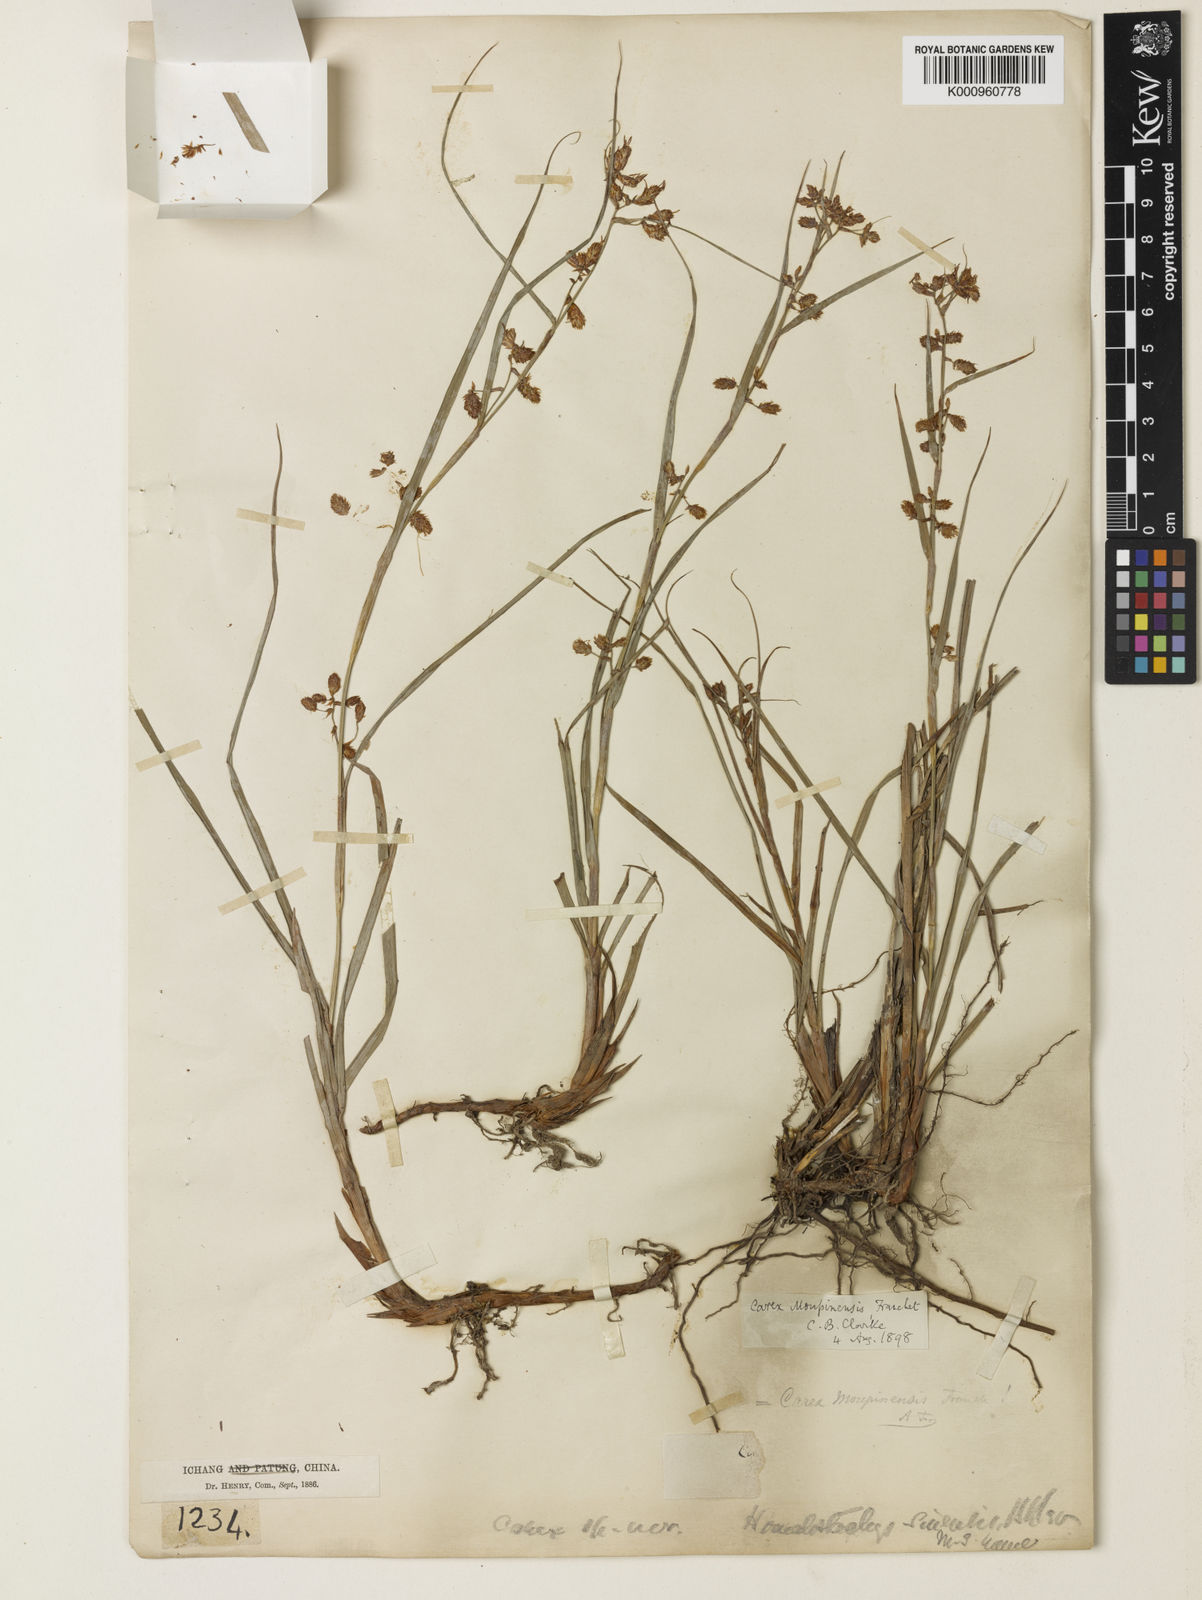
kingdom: Plantae
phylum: Tracheophyta
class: Liliopsida
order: Poales
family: Cyperaceae
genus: Carex
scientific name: Carex moupinensis
